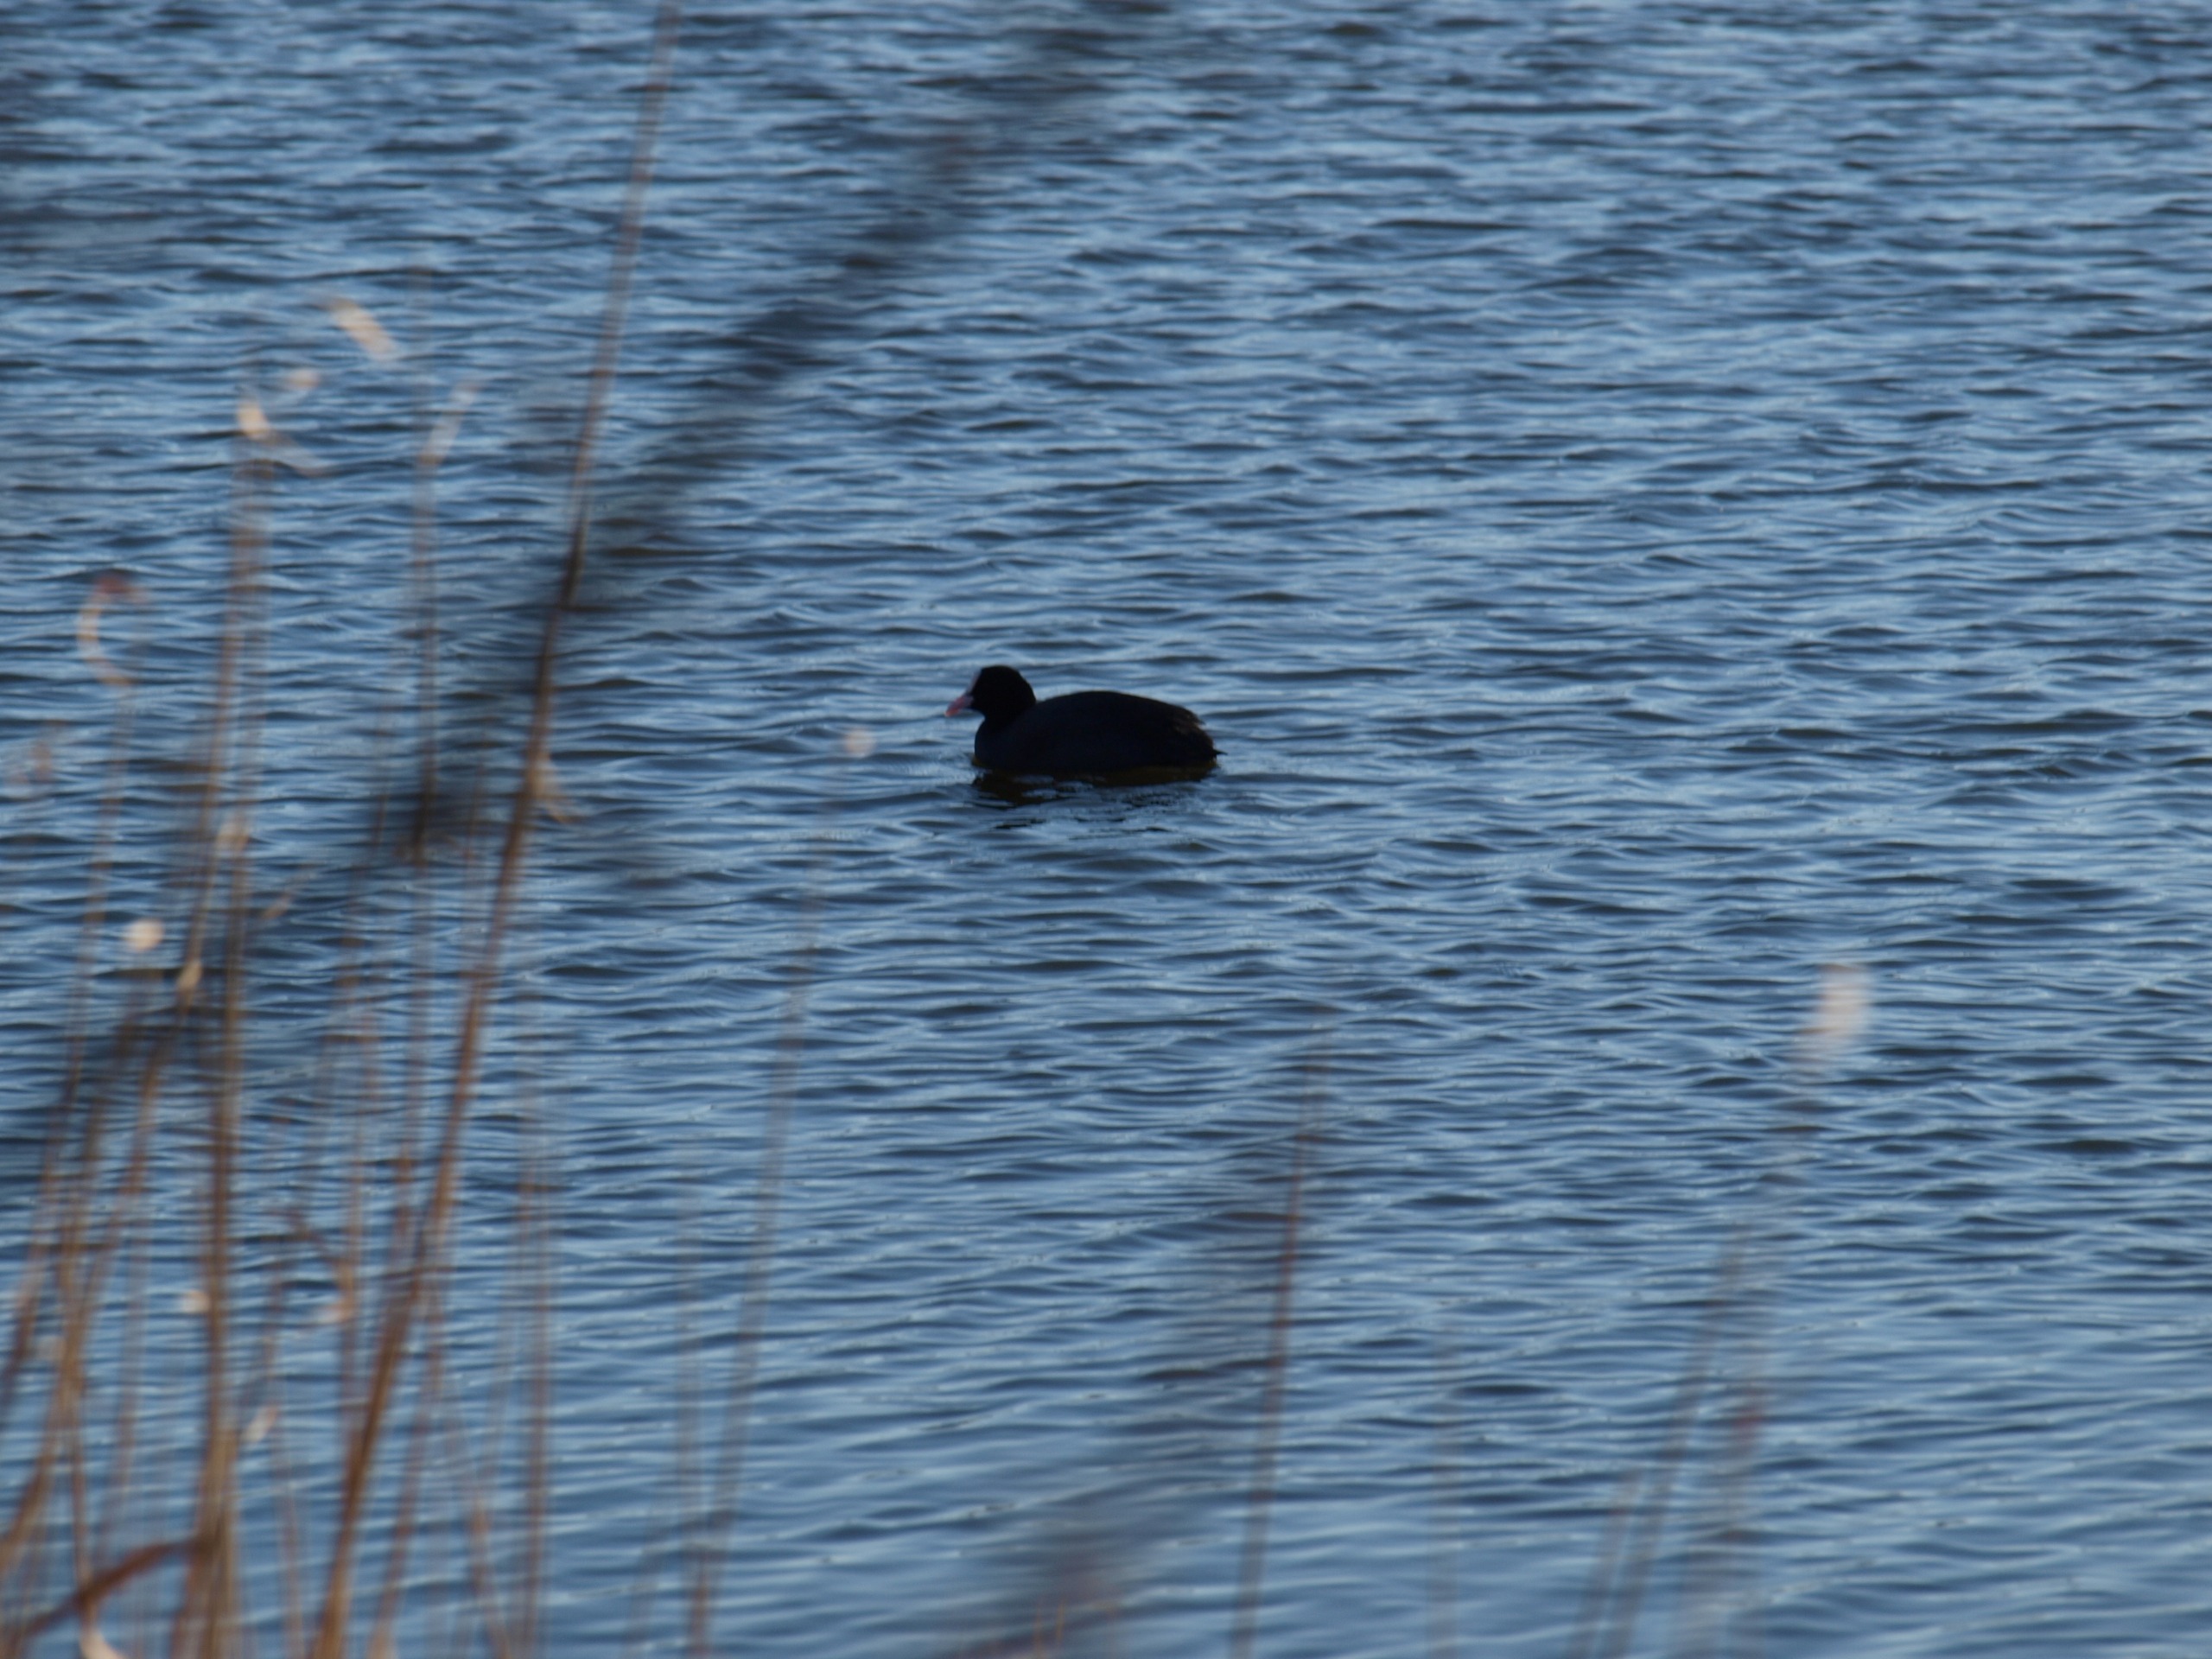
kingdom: Animalia
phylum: Chordata
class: Aves
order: Gruiformes
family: Rallidae
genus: Fulica
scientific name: Fulica atra
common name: Blishøne
